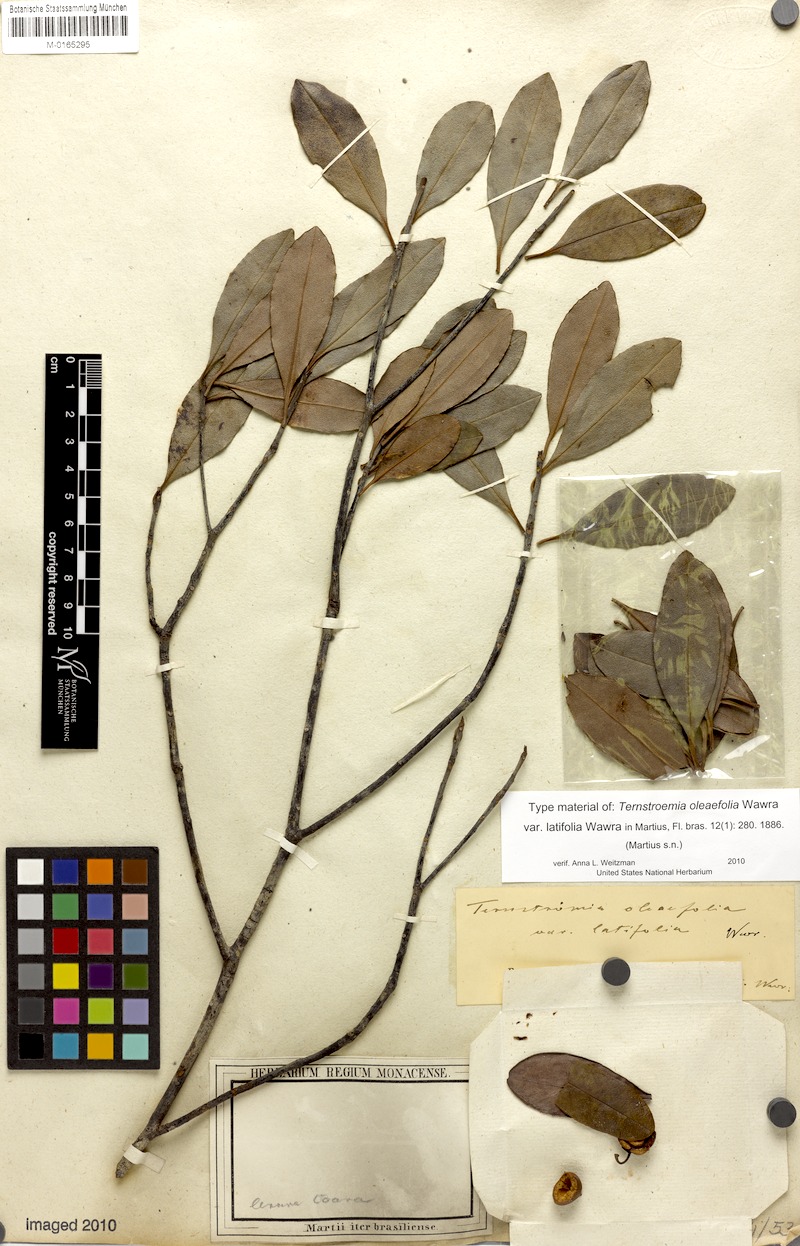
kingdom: Plantae
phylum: Tracheophyta
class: Magnoliopsida
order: Ericales
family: Pentaphylacaceae
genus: Ternstroemia
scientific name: Ternstroemia oleifolia
